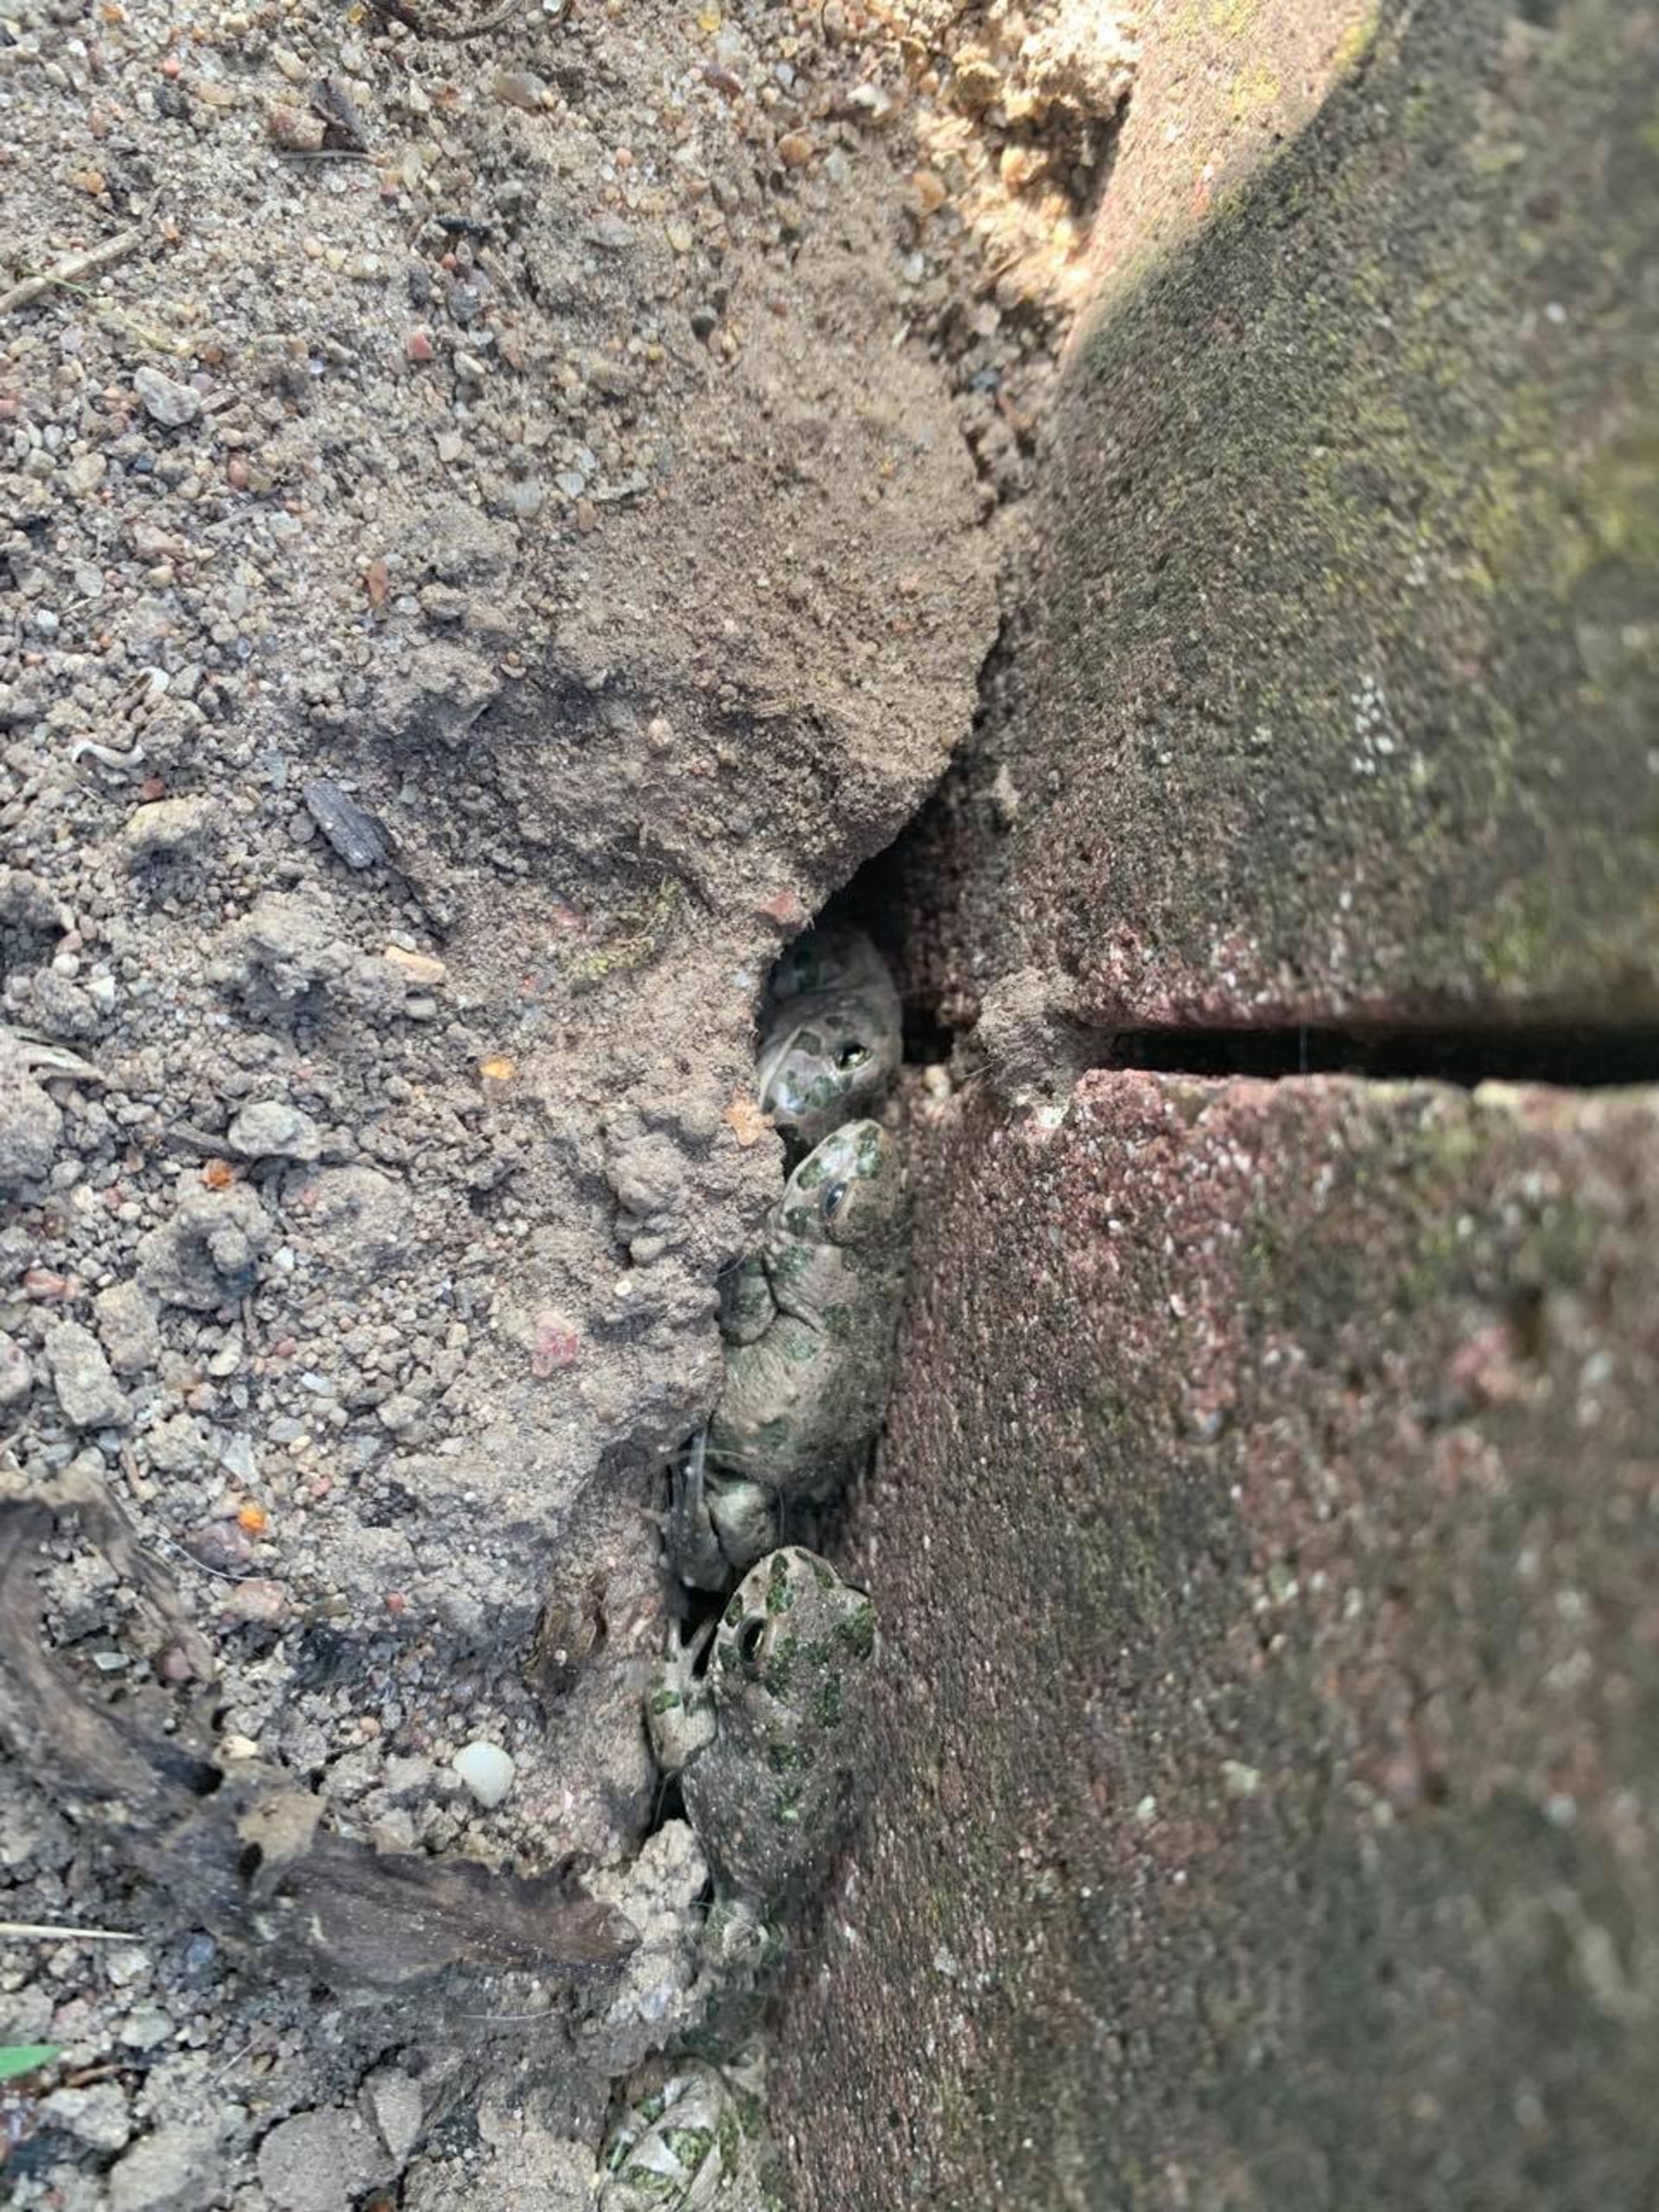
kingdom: Animalia
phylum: Chordata
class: Amphibia
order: Anura
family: Bufonidae
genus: Bufotes
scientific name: Bufotes viridis
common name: Grønbroget tudse
